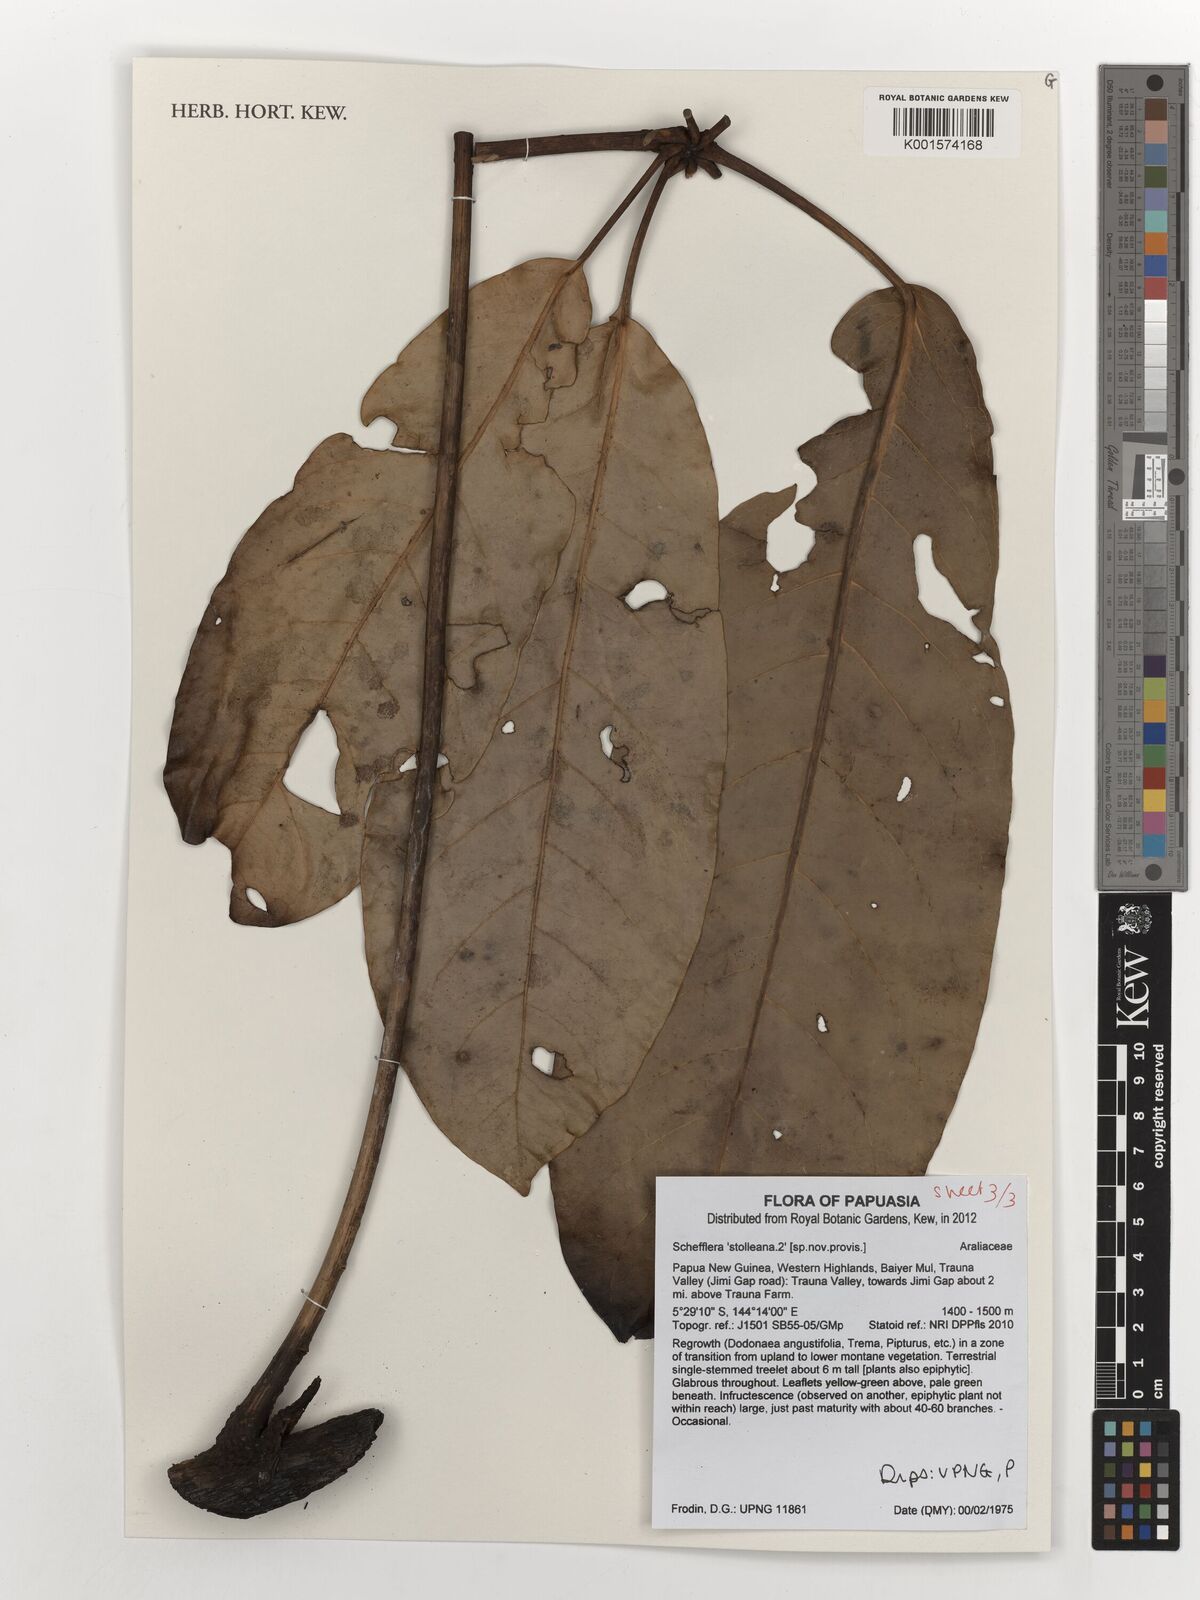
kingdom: Plantae
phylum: Tracheophyta
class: Magnoliopsida
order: Apiales
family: Araliaceae
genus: Heptapleurum
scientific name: Heptapleurum stolleanum
